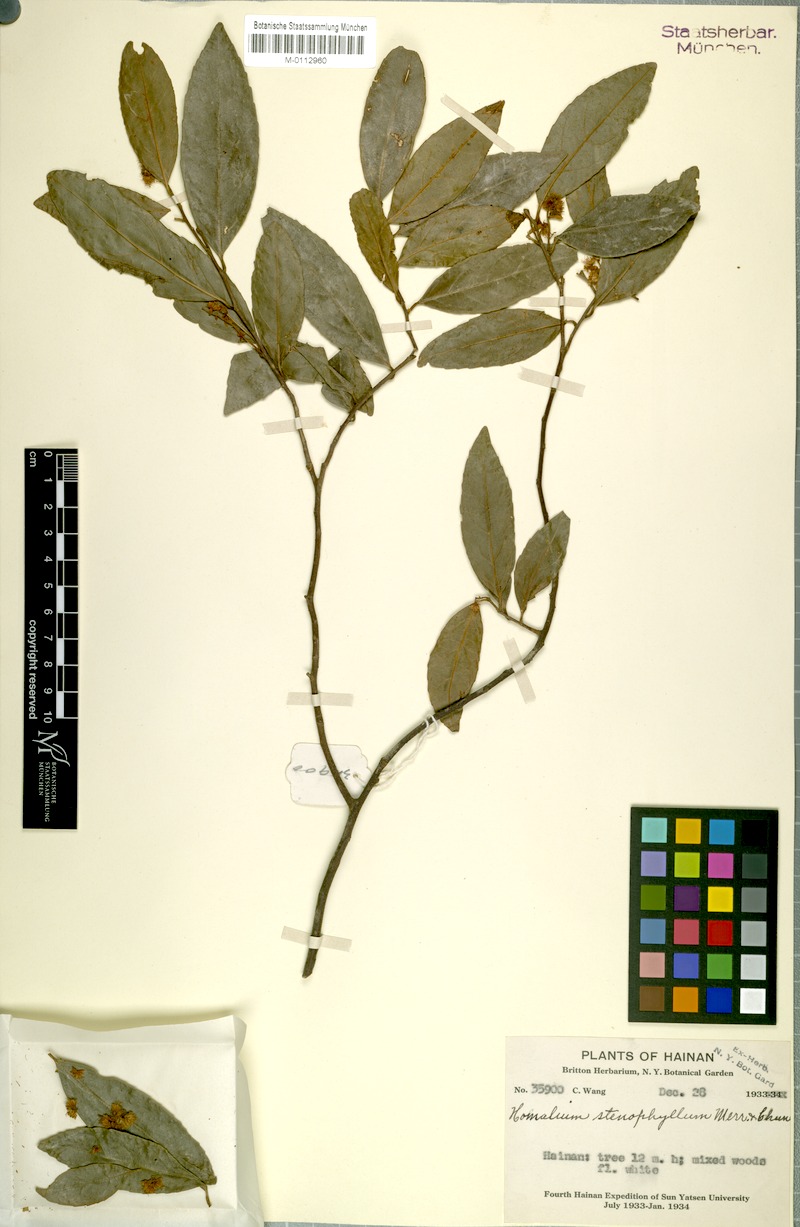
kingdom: Plantae
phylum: Tracheophyta
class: Magnoliopsida
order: Malpighiales
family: Salicaceae
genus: Homalium
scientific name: Homalium stenophyllum
